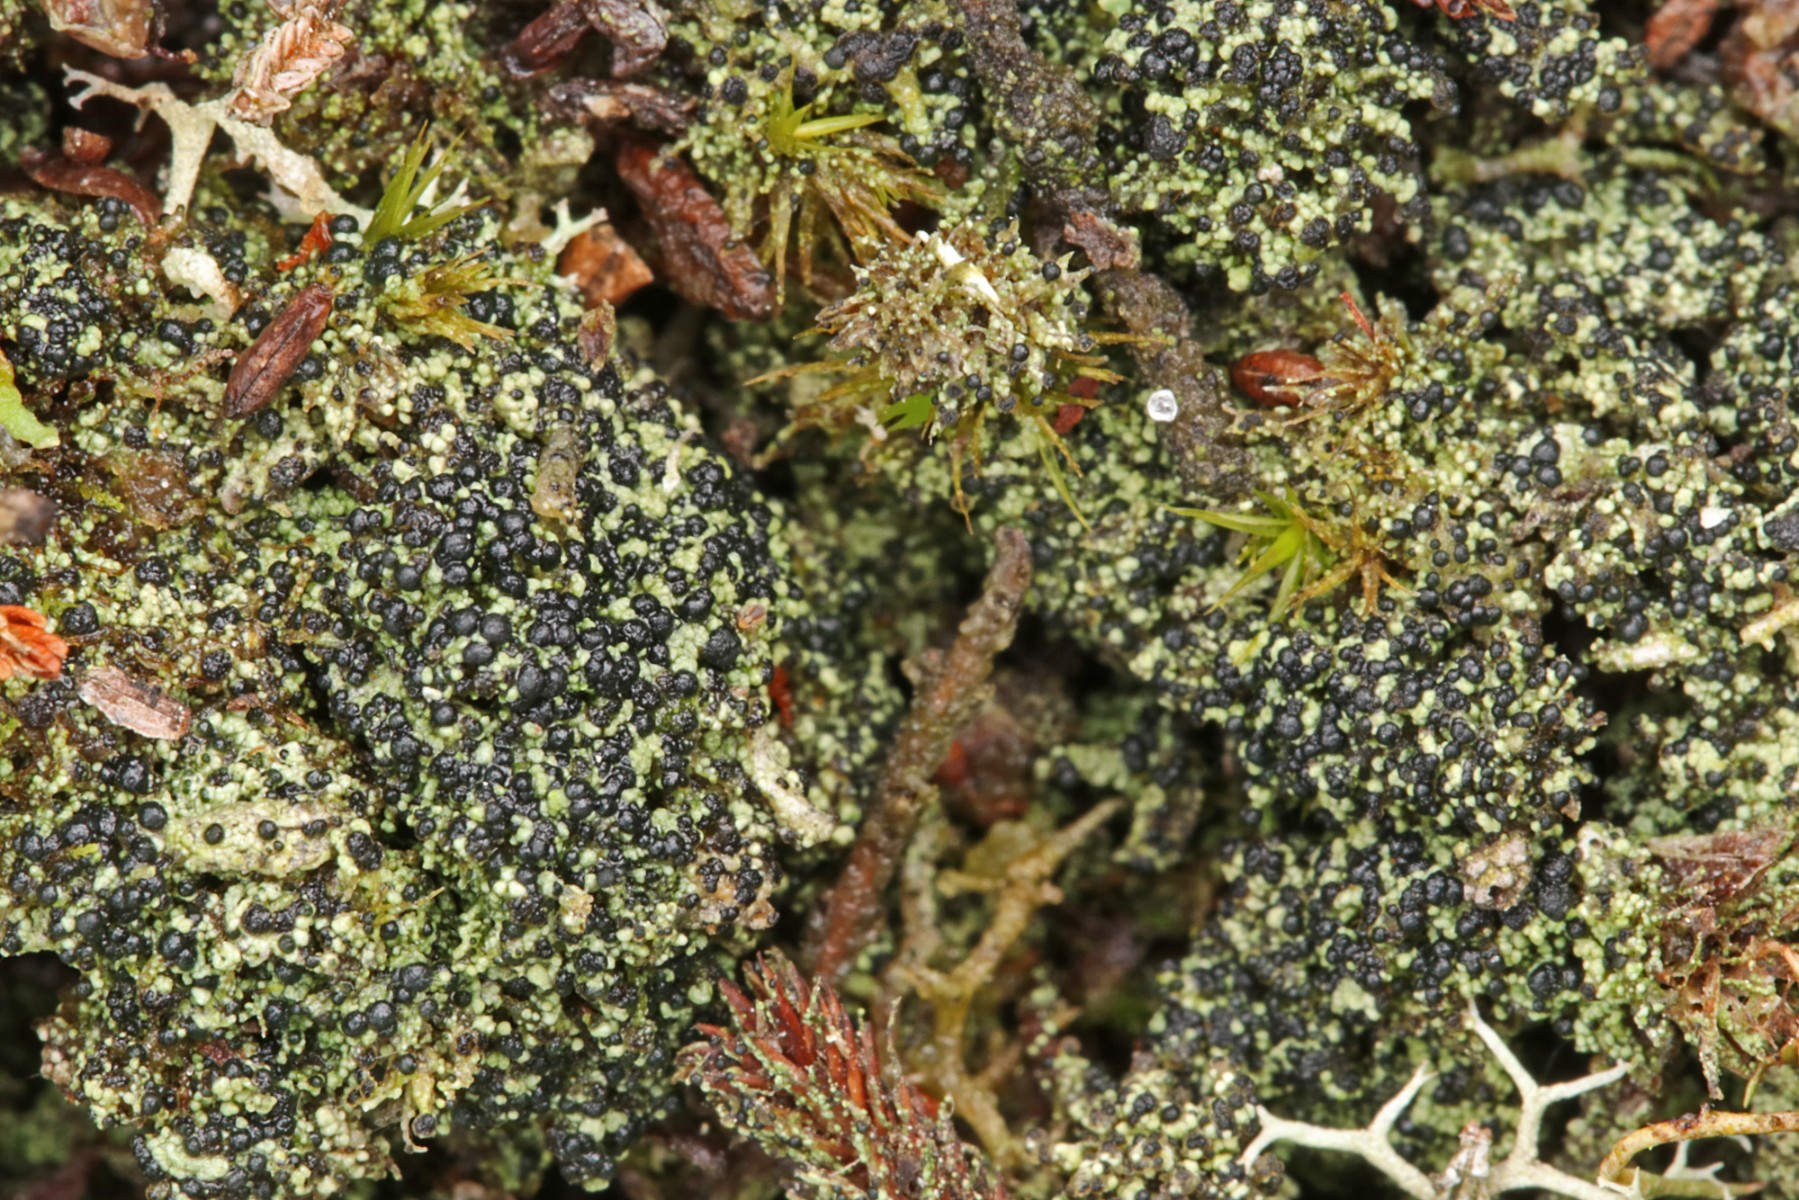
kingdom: Fungi
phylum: Ascomycota
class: Lecanoromycetes
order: Lecanorales
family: Byssolomataceae
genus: Micarea
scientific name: Micarea lignaria
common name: tørve-knaplav
